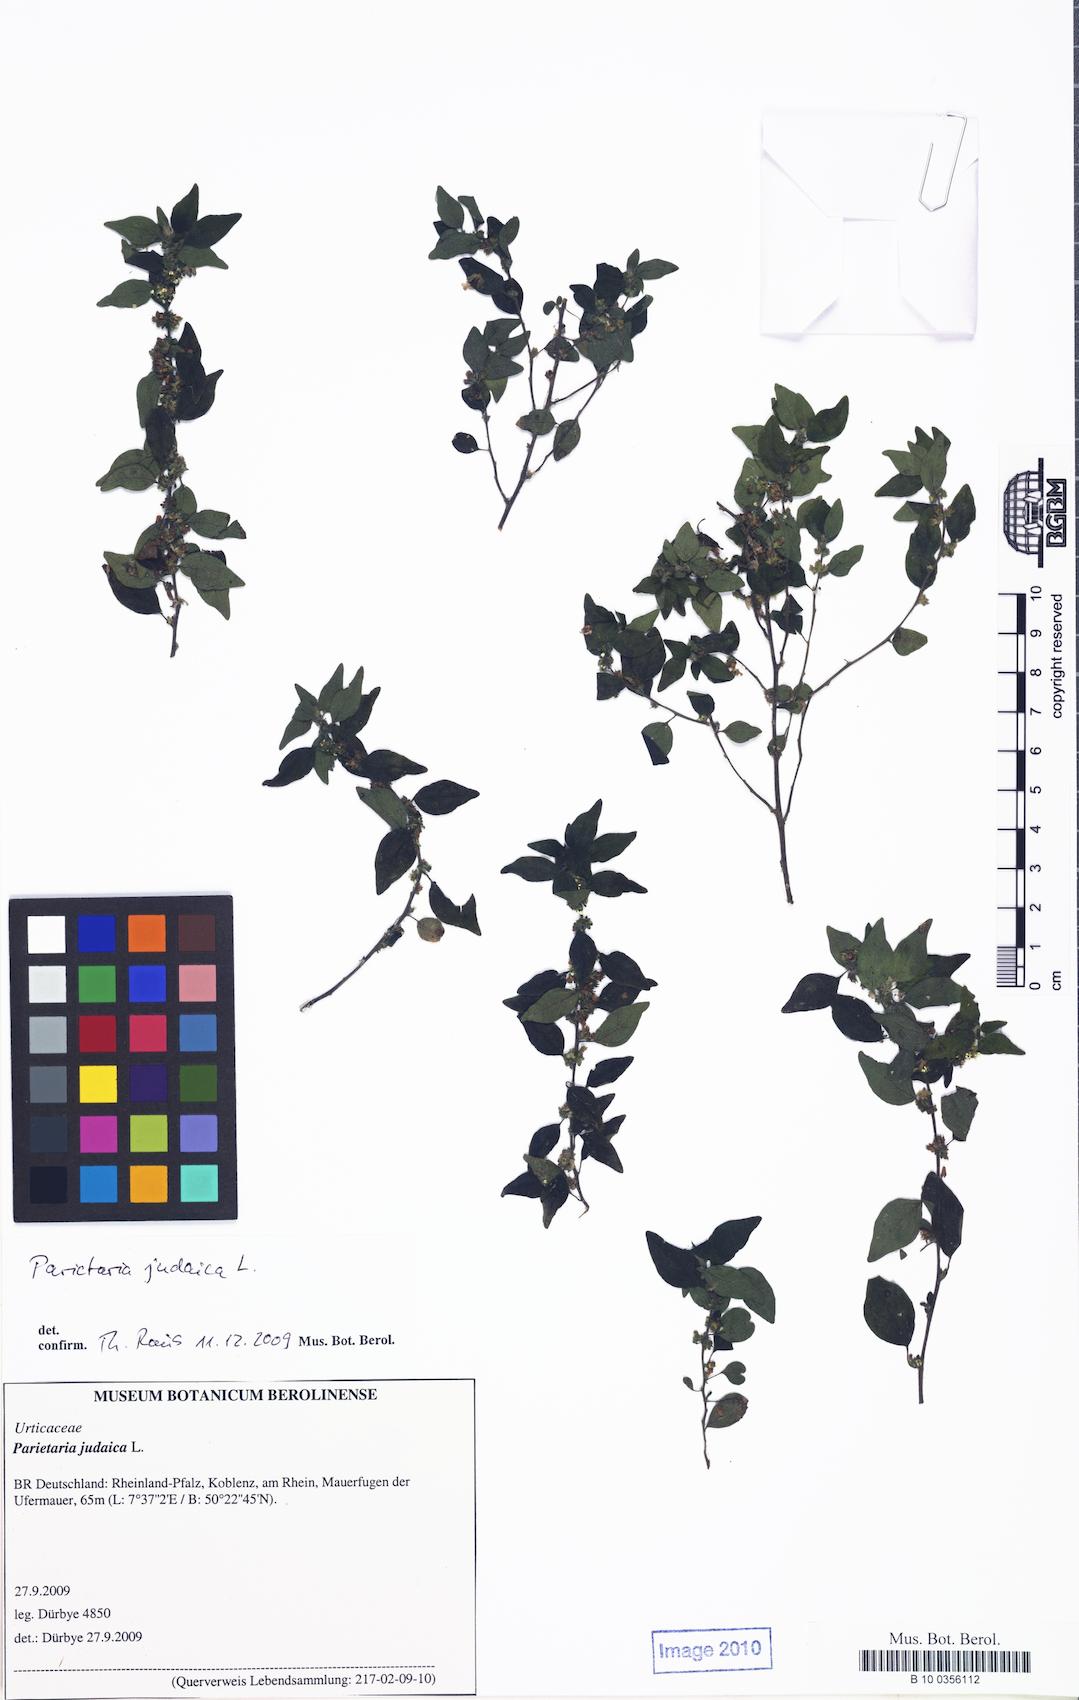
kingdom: Plantae
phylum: Tracheophyta
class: Magnoliopsida
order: Rosales
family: Urticaceae
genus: Parietaria
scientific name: Parietaria judaica
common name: Pellitory-of-the-wall
